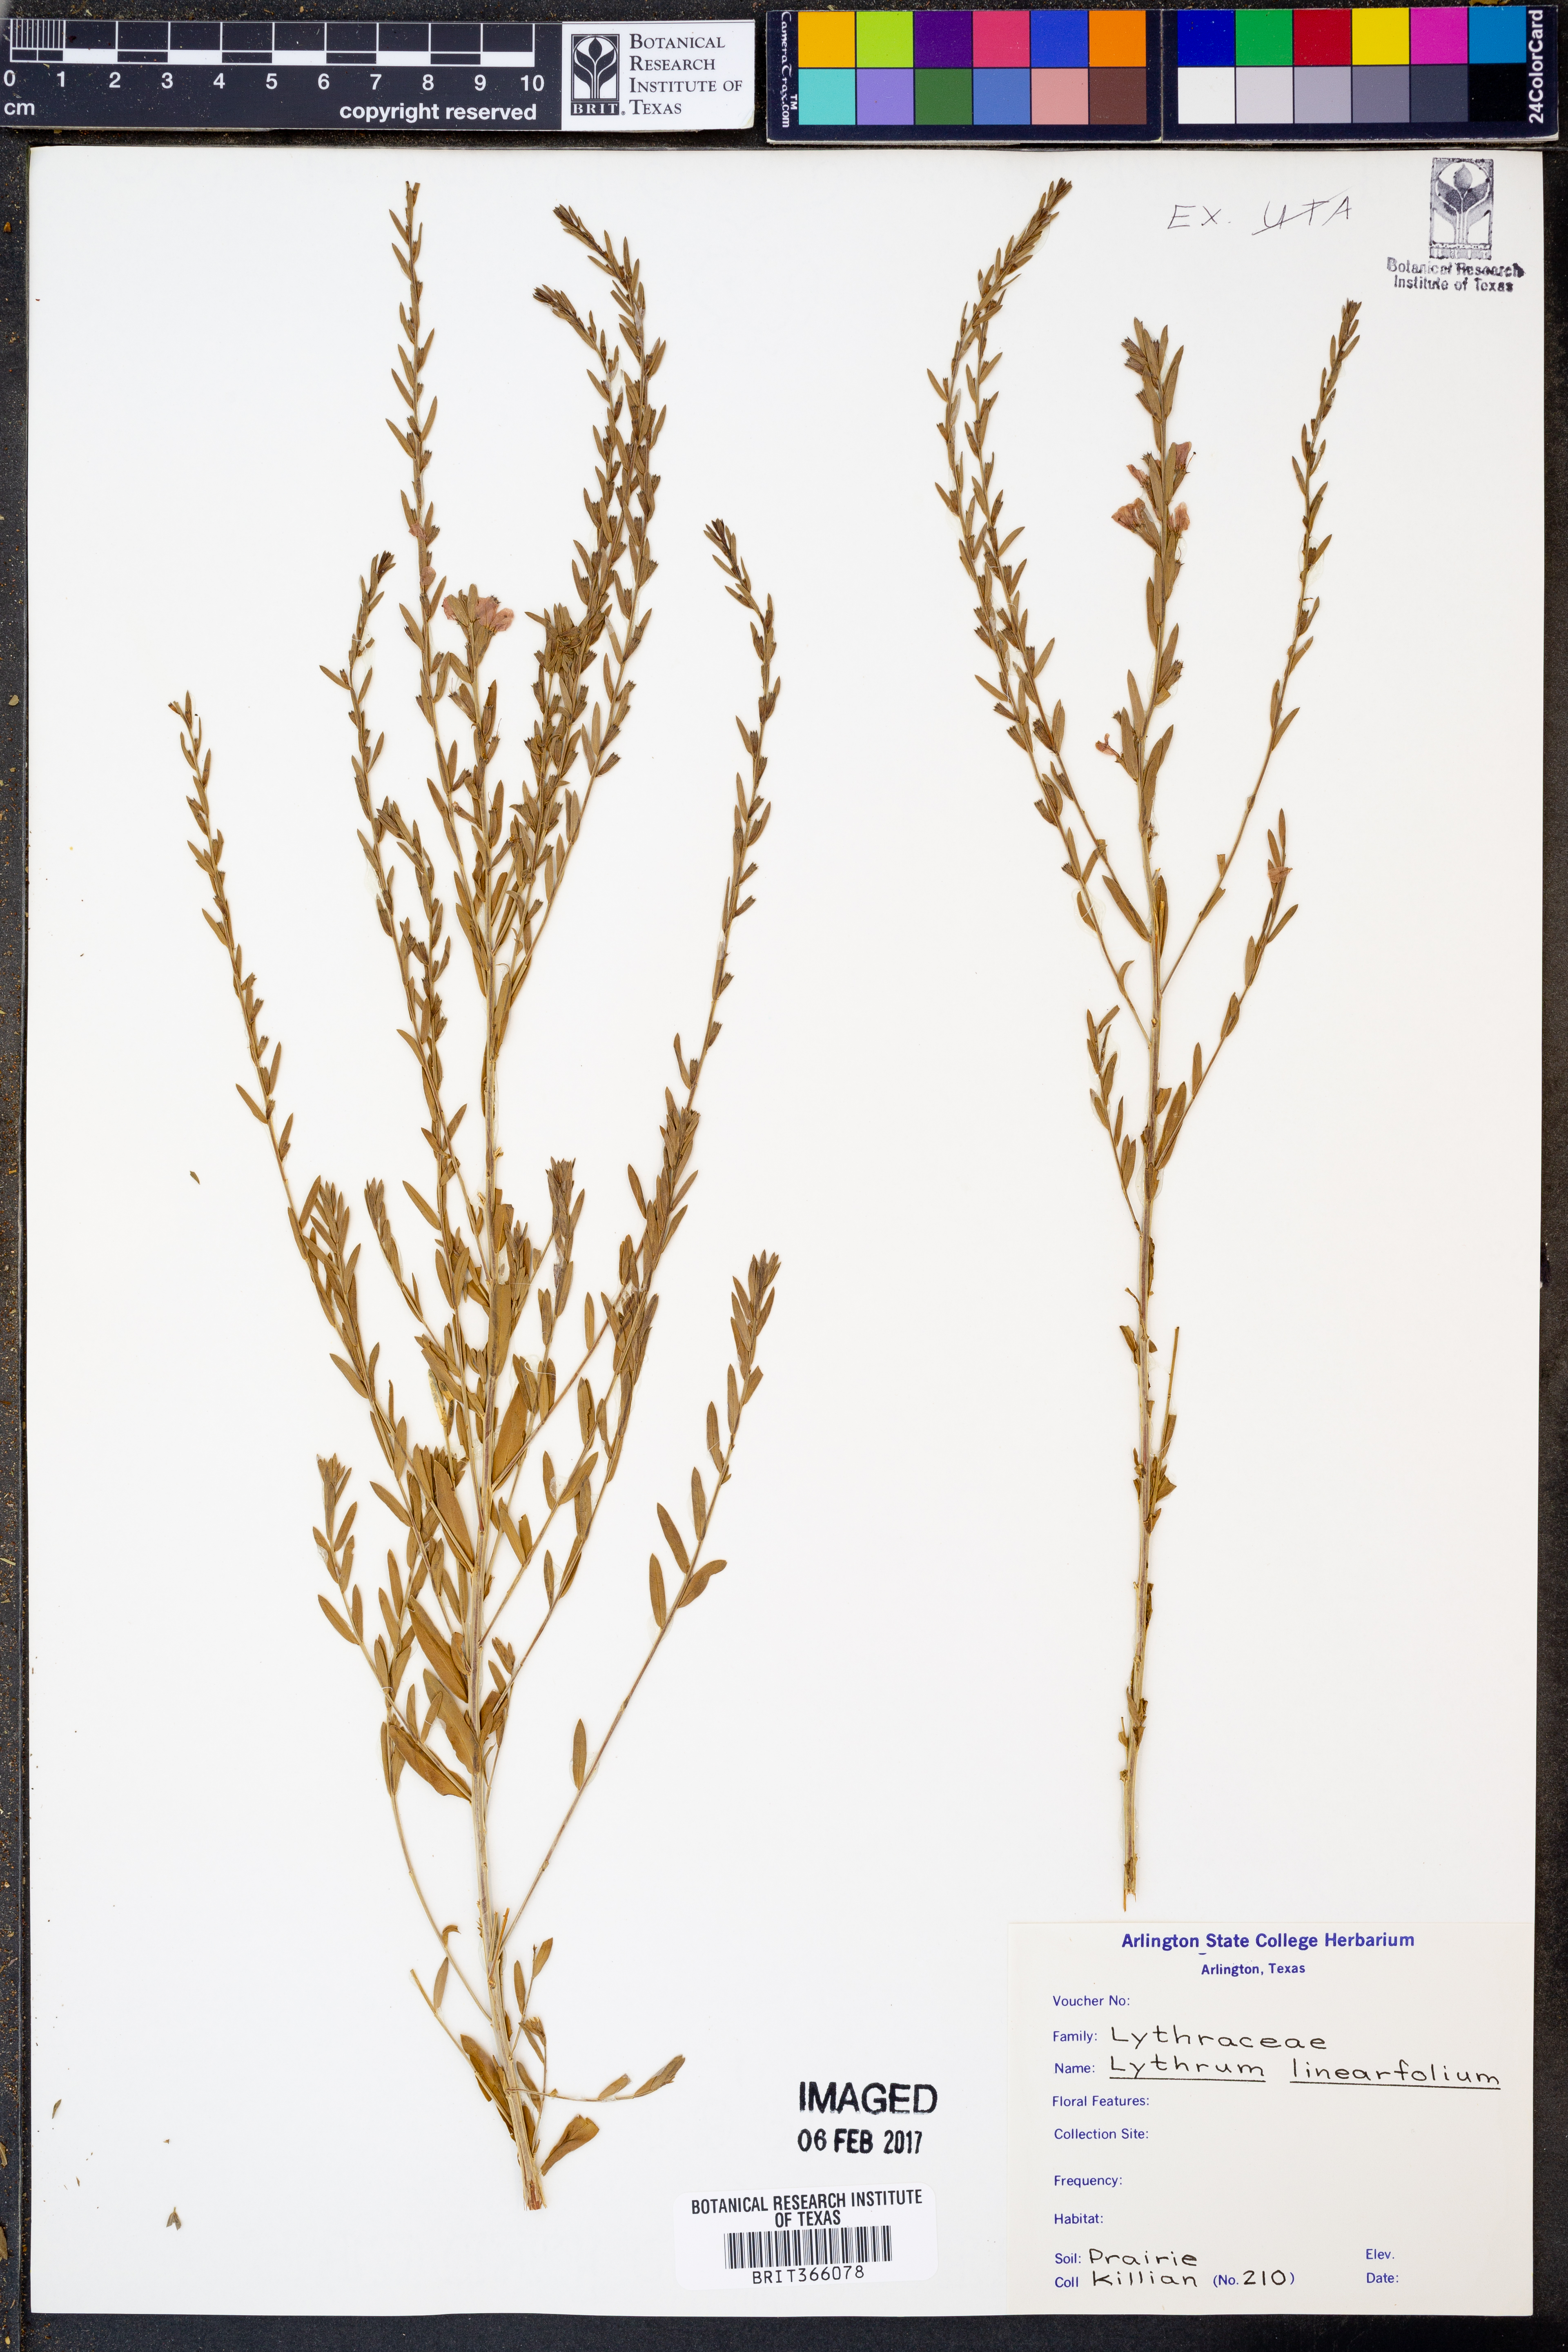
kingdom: Plantae
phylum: Tracheophyta
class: Magnoliopsida
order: Myrtales
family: Lythraceae
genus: Lythrum
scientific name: Lythrum californicum
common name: California loosestrife
